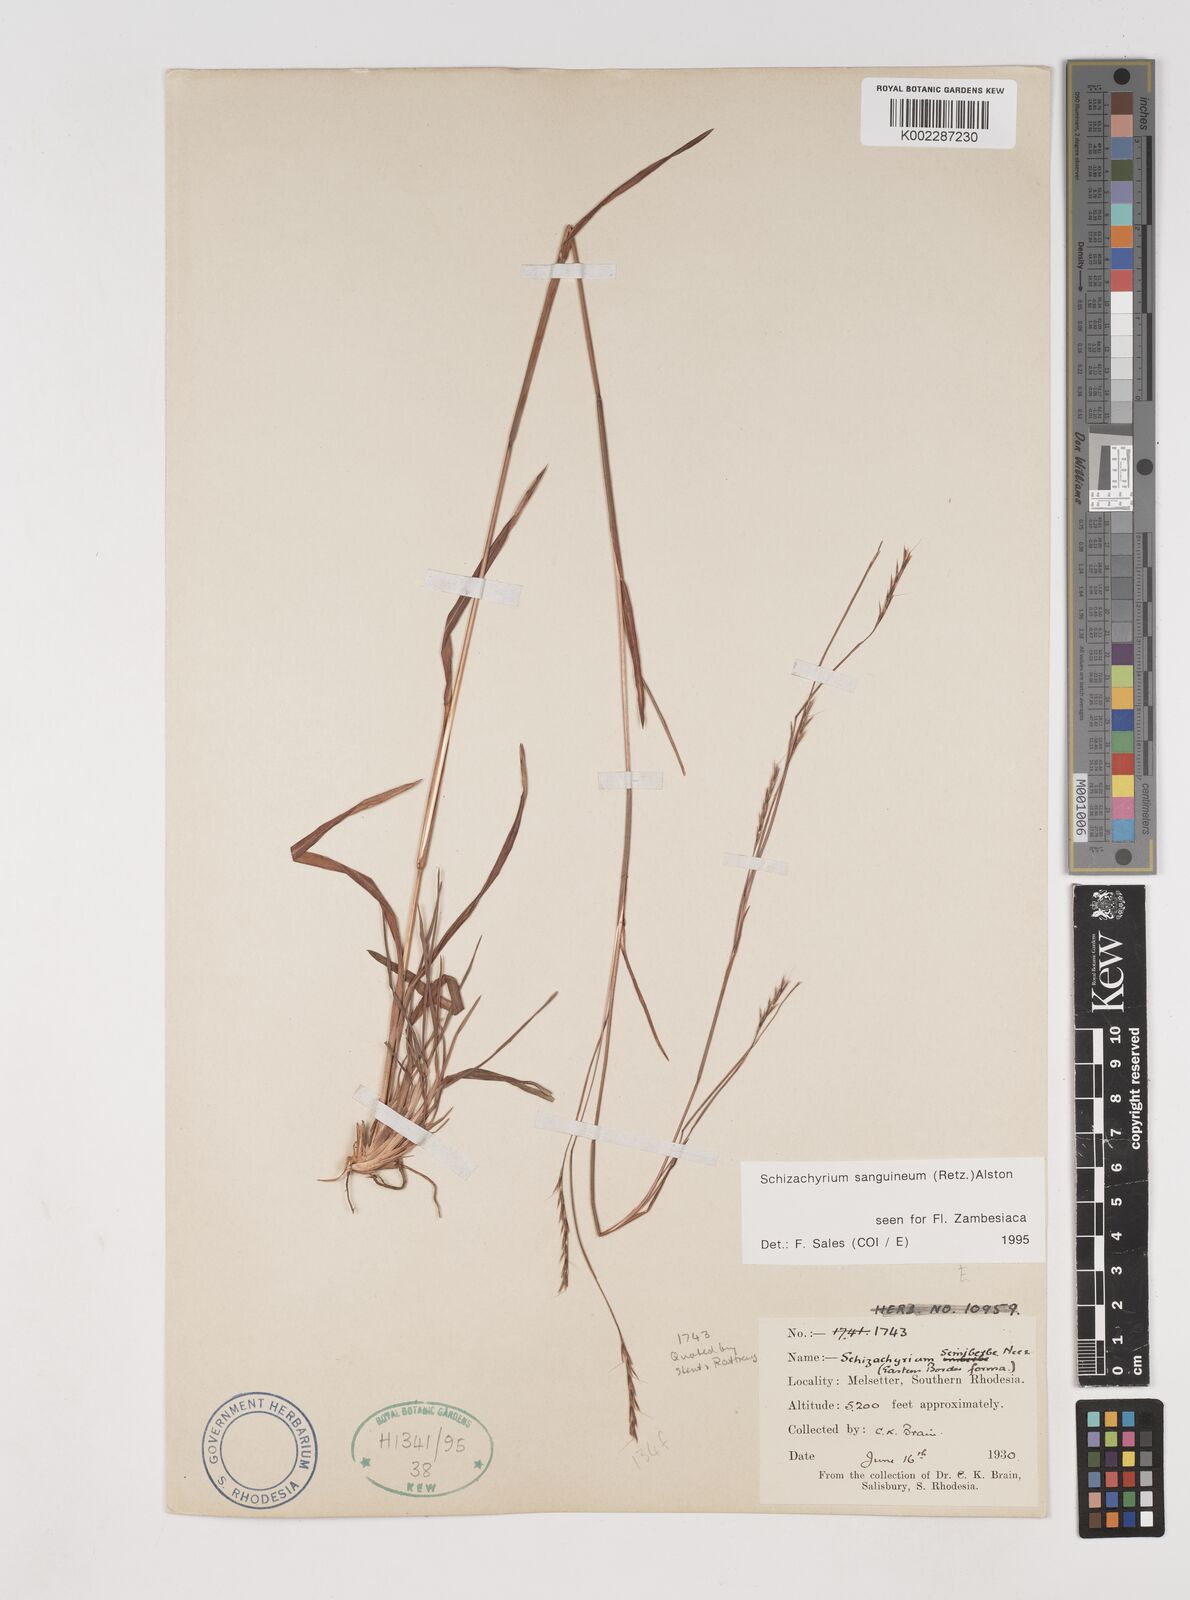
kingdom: Plantae
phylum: Tracheophyta
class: Liliopsida
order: Poales
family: Poaceae
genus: Schizachyrium
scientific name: Schizachyrium sanguineum
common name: Crimson bluestem
